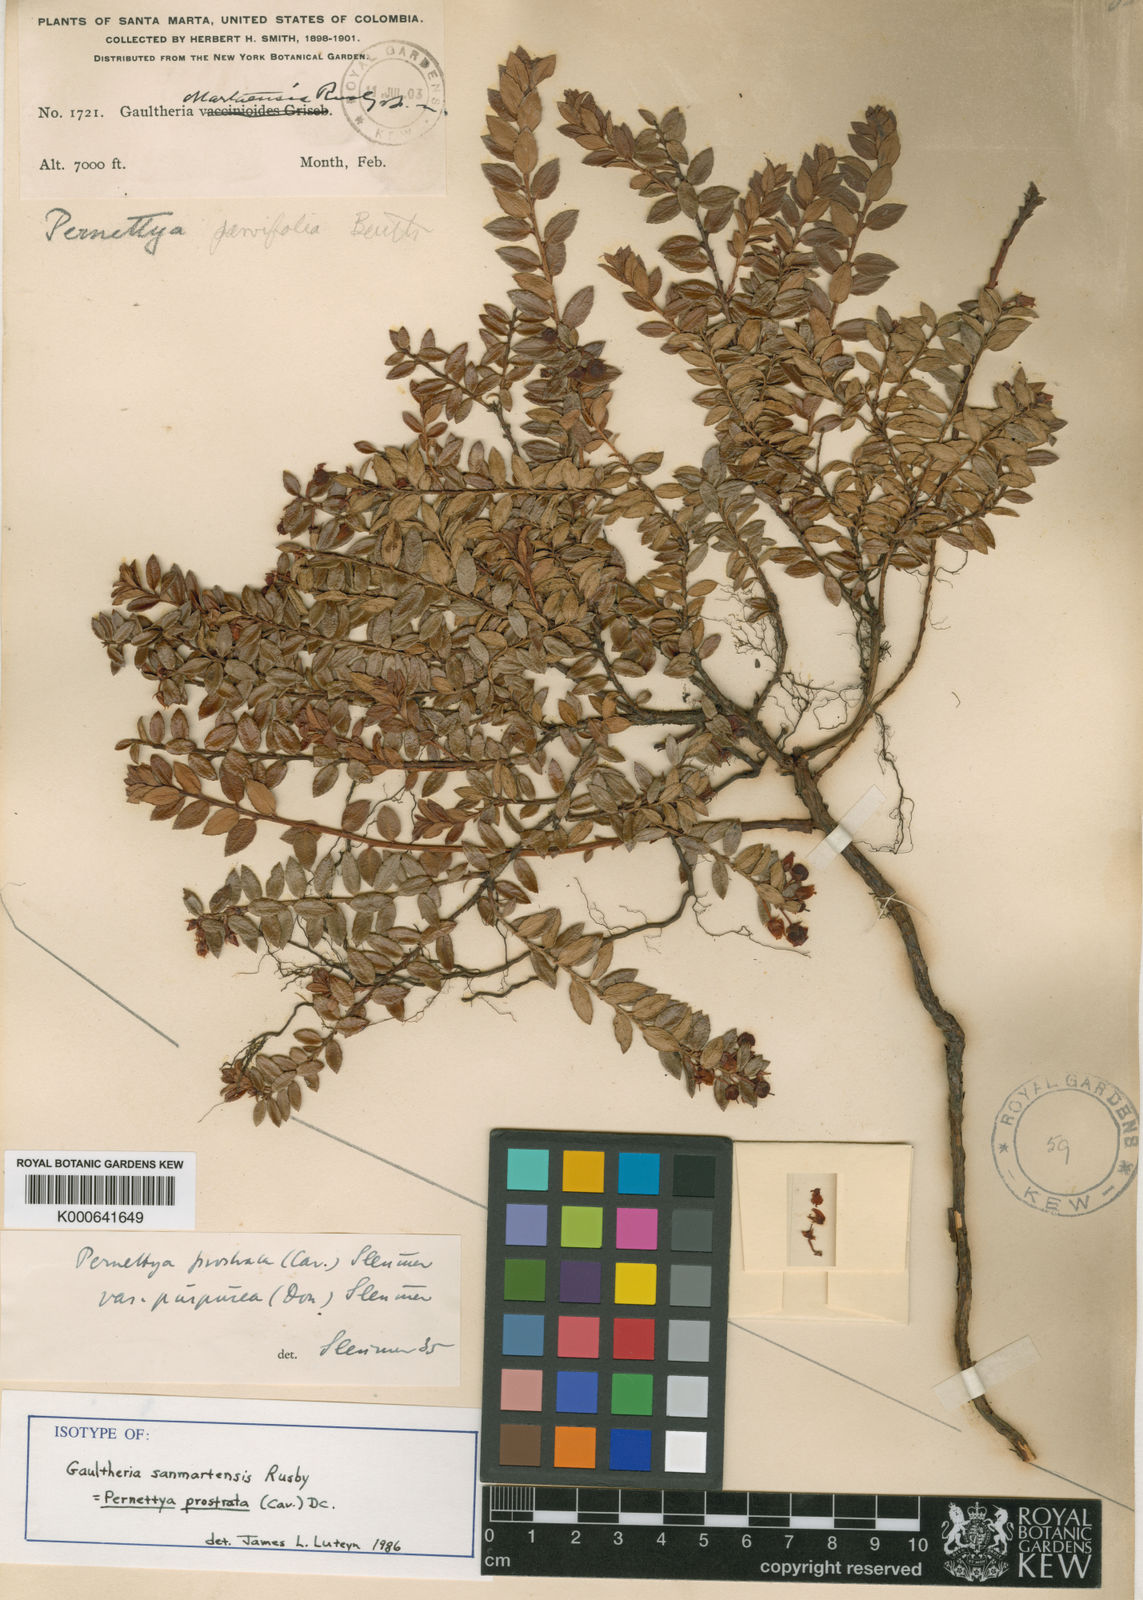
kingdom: Plantae
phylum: Tracheophyta
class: Magnoliopsida
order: Ericales
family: Ericaceae
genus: Gaultheria
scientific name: Gaultheria myrsinoides
